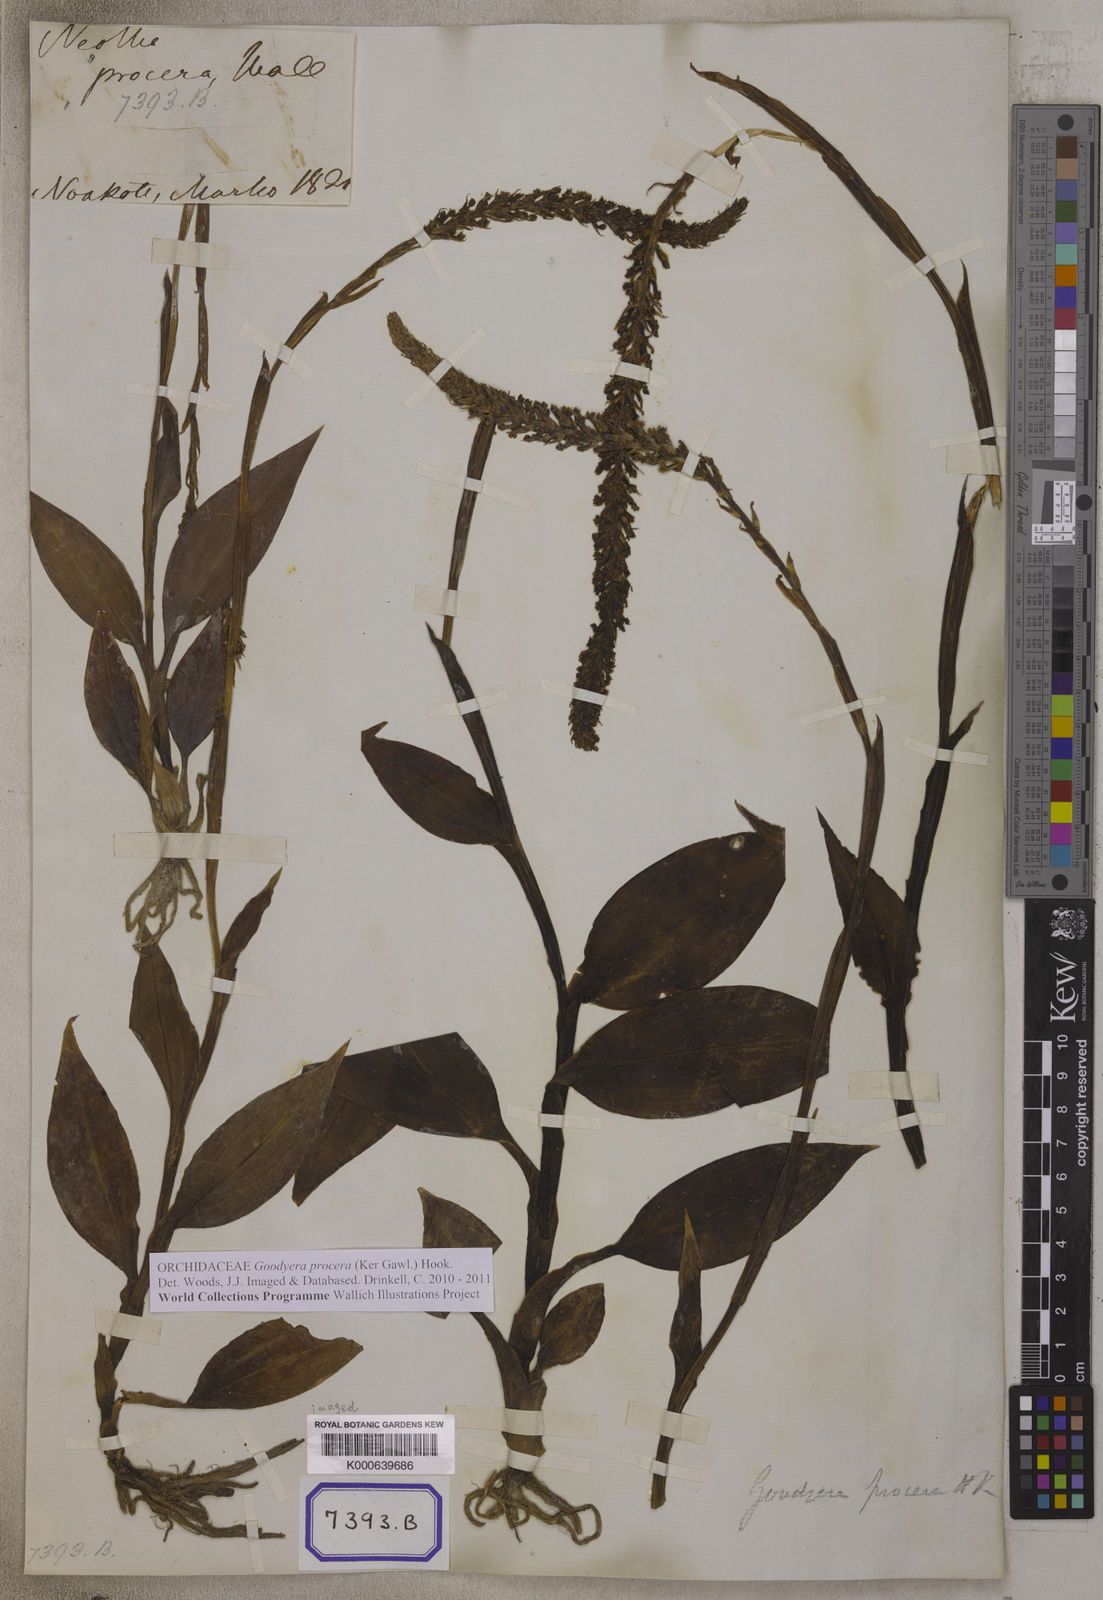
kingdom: Plantae
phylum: Tracheophyta
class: Liliopsida
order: Asparagales
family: Orchidaceae
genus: Neottia
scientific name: Neottia
